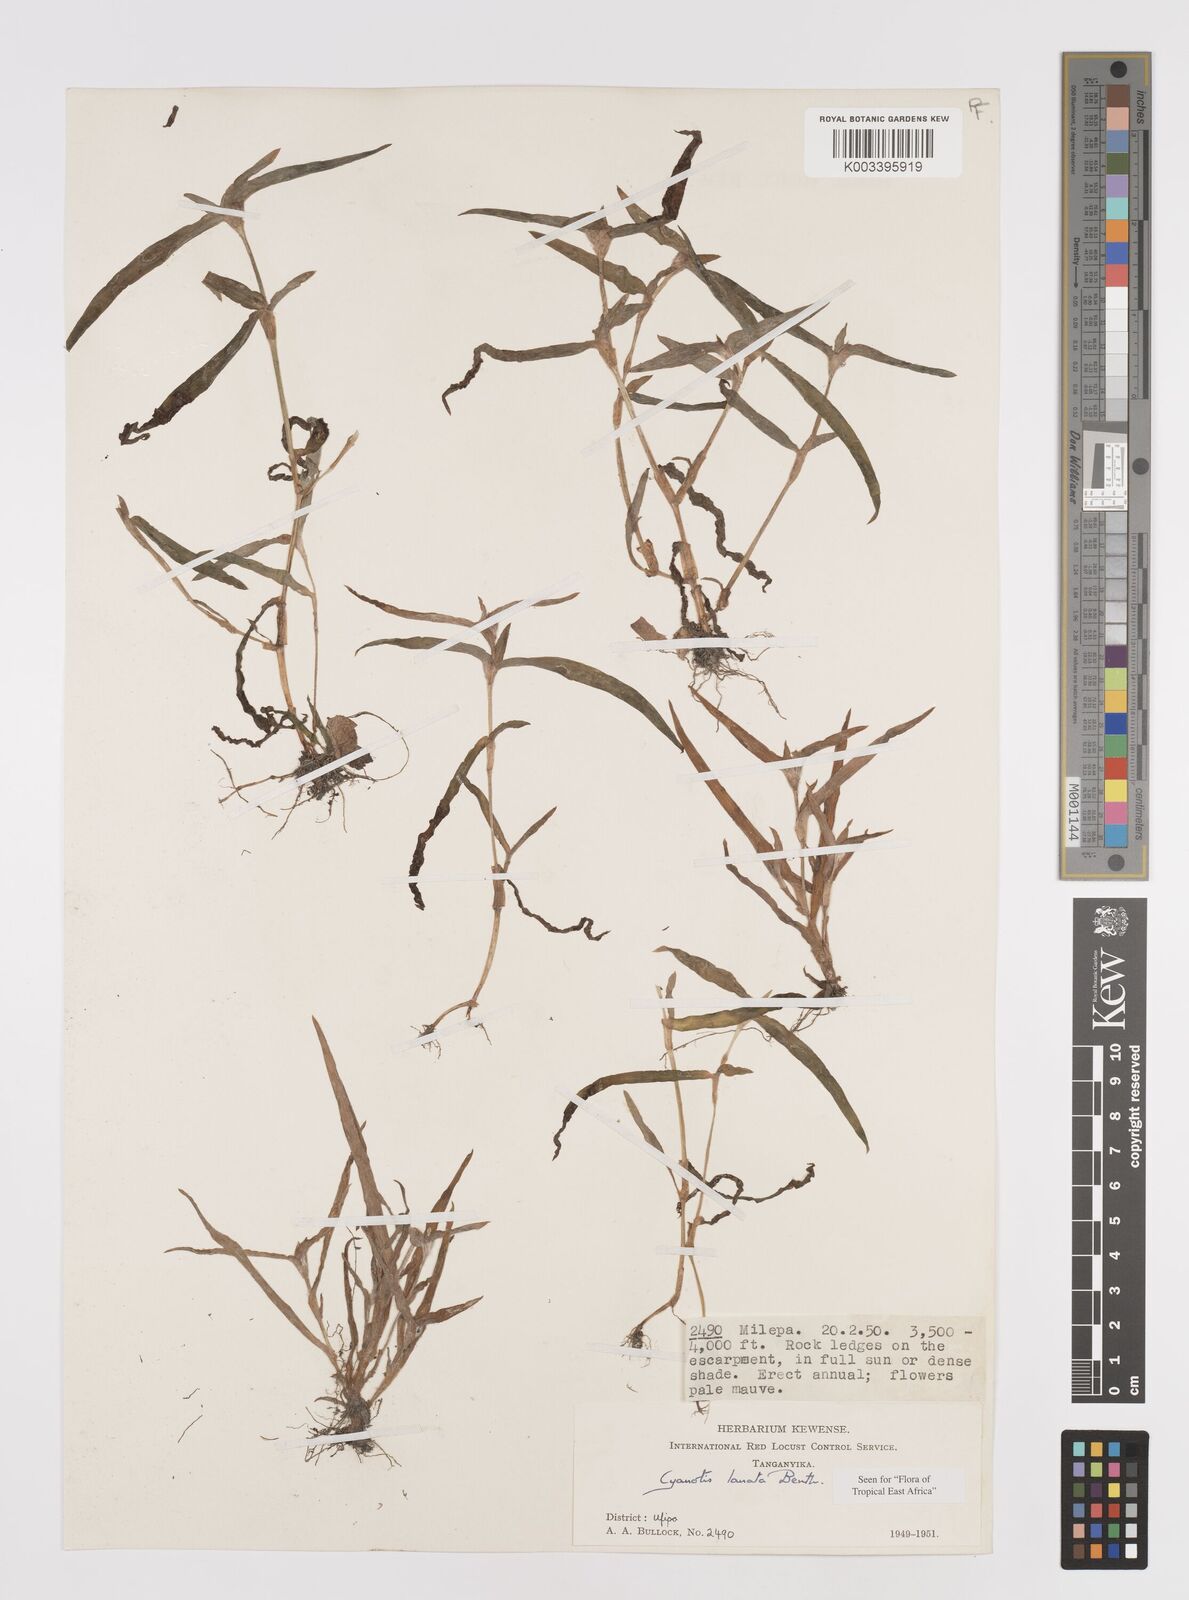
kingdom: Plantae
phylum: Tracheophyta
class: Liliopsida
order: Commelinales
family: Commelinaceae
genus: Cyanotis
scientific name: Cyanotis lanata
